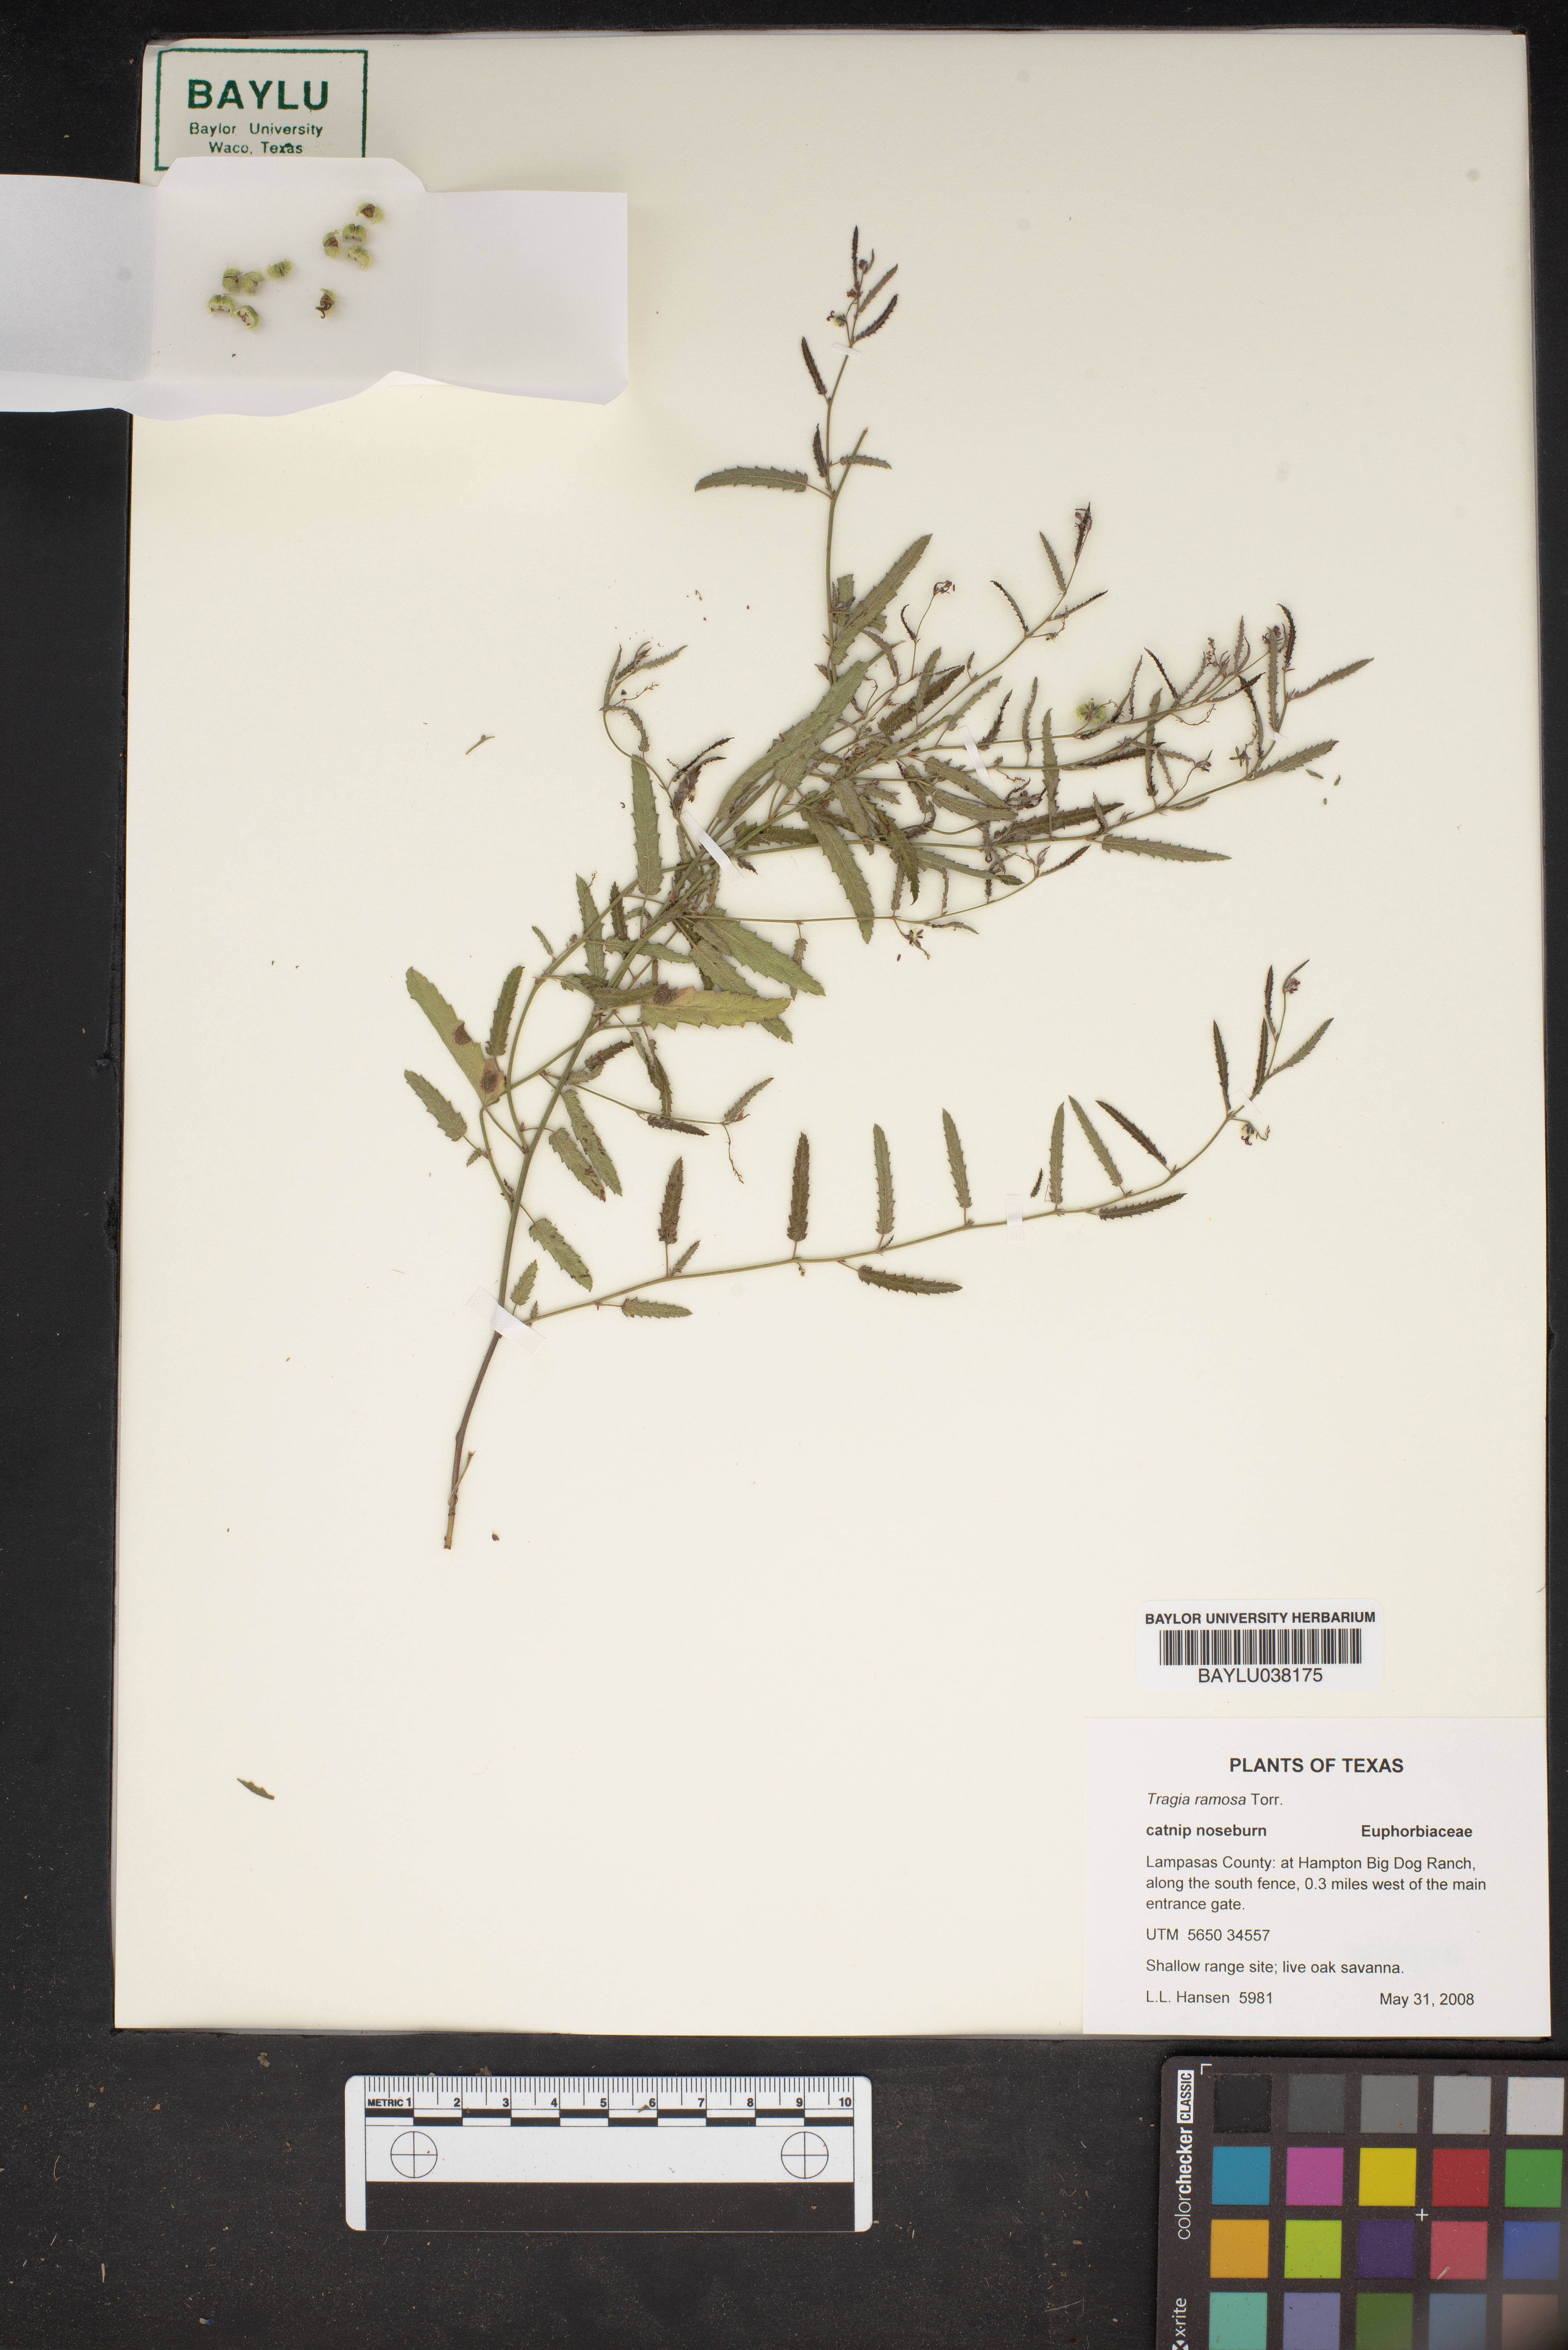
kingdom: Plantae
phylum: Tracheophyta
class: Magnoliopsida
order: Malpighiales
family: Euphorbiaceae
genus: Tragia
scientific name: Tragia ramosa
